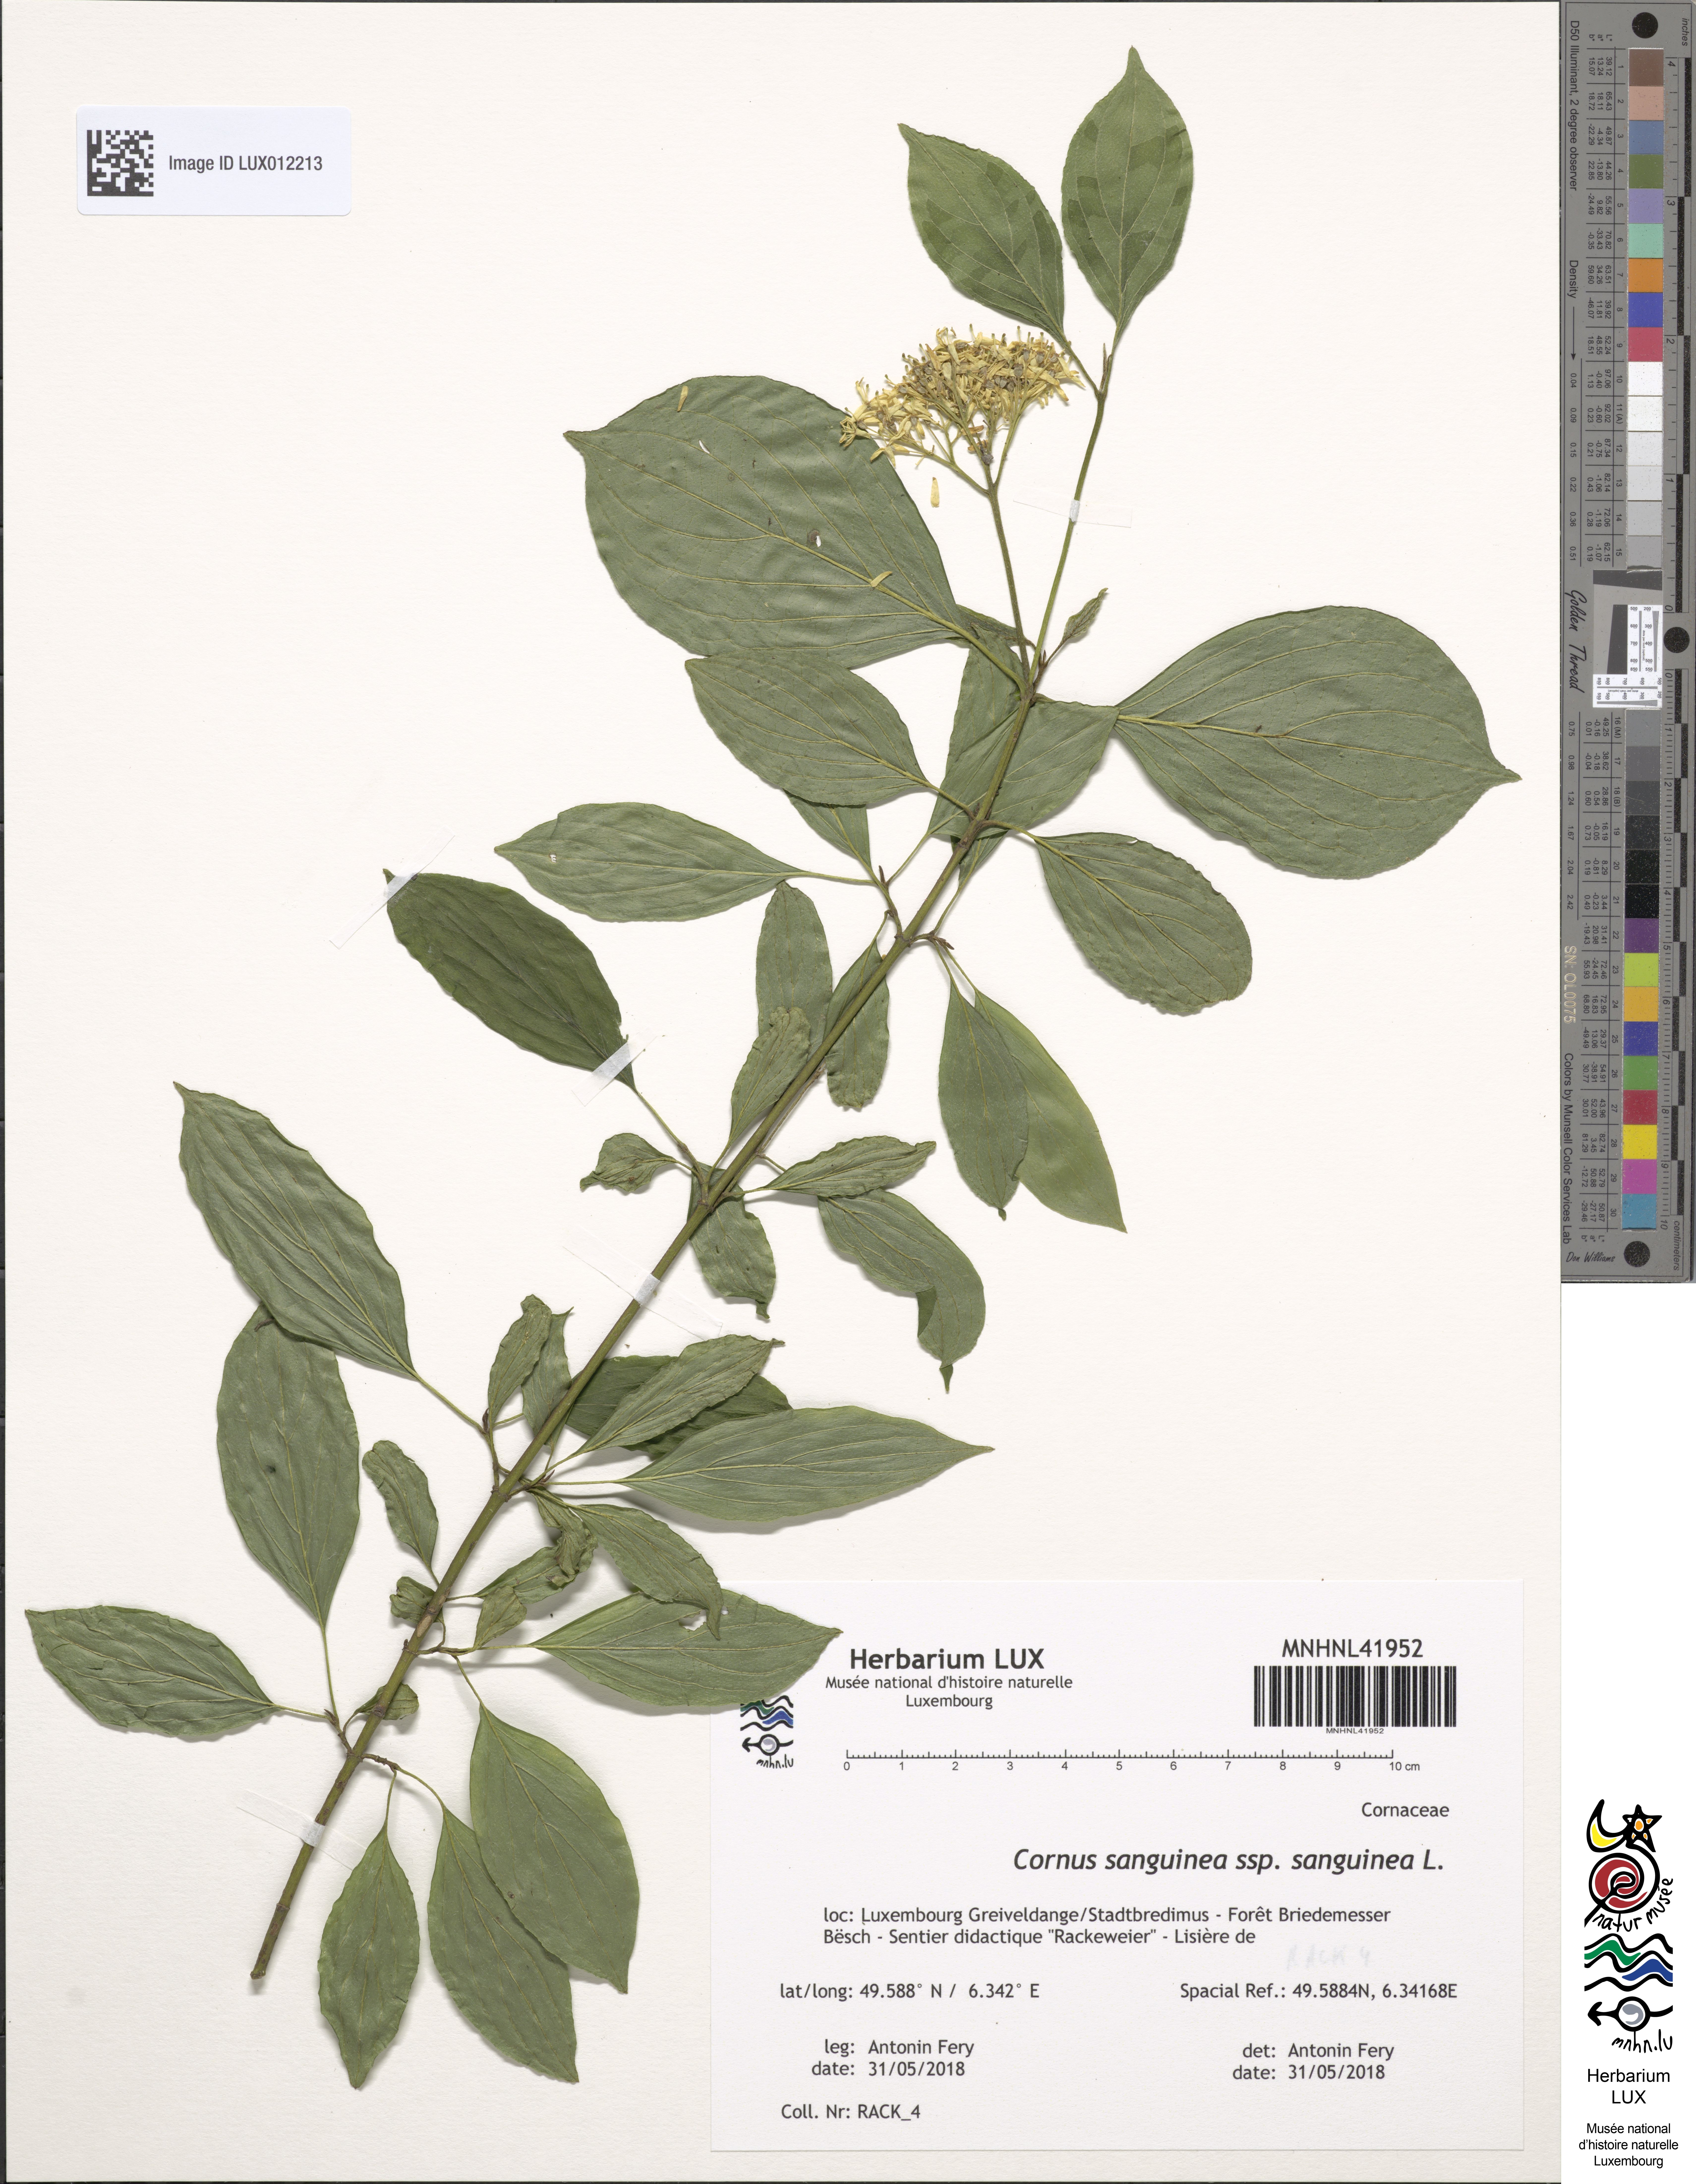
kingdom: Plantae
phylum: Tracheophyta
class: Magnoliopsida
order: Cornales
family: Cornaceae
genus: Cornus
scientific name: Cornus sanguinea
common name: Dogwood
